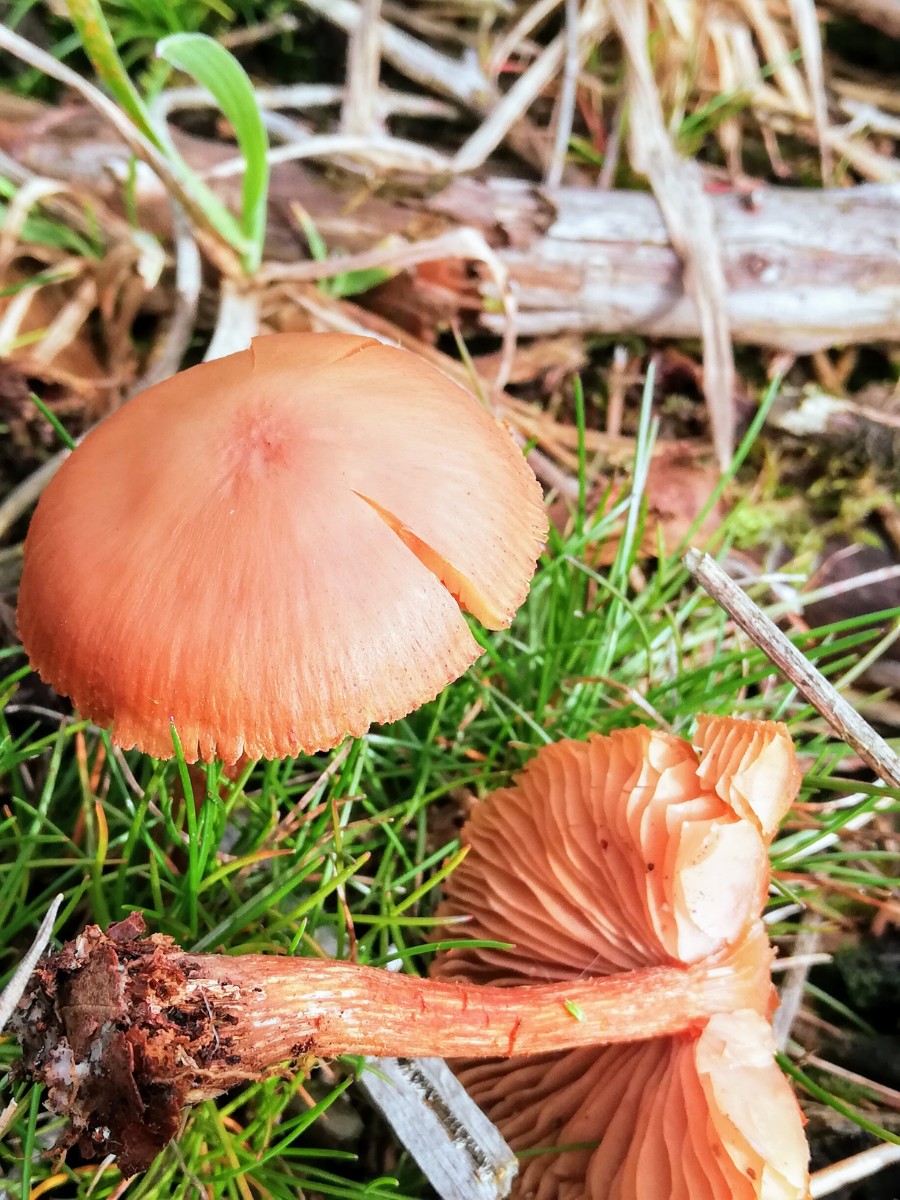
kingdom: Fungi
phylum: Basidiomycota
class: Agaricomycetes
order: Agaricales
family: Hydnangiaceae
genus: Laccaria
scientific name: Laccaria proxima
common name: stor ametysthat
